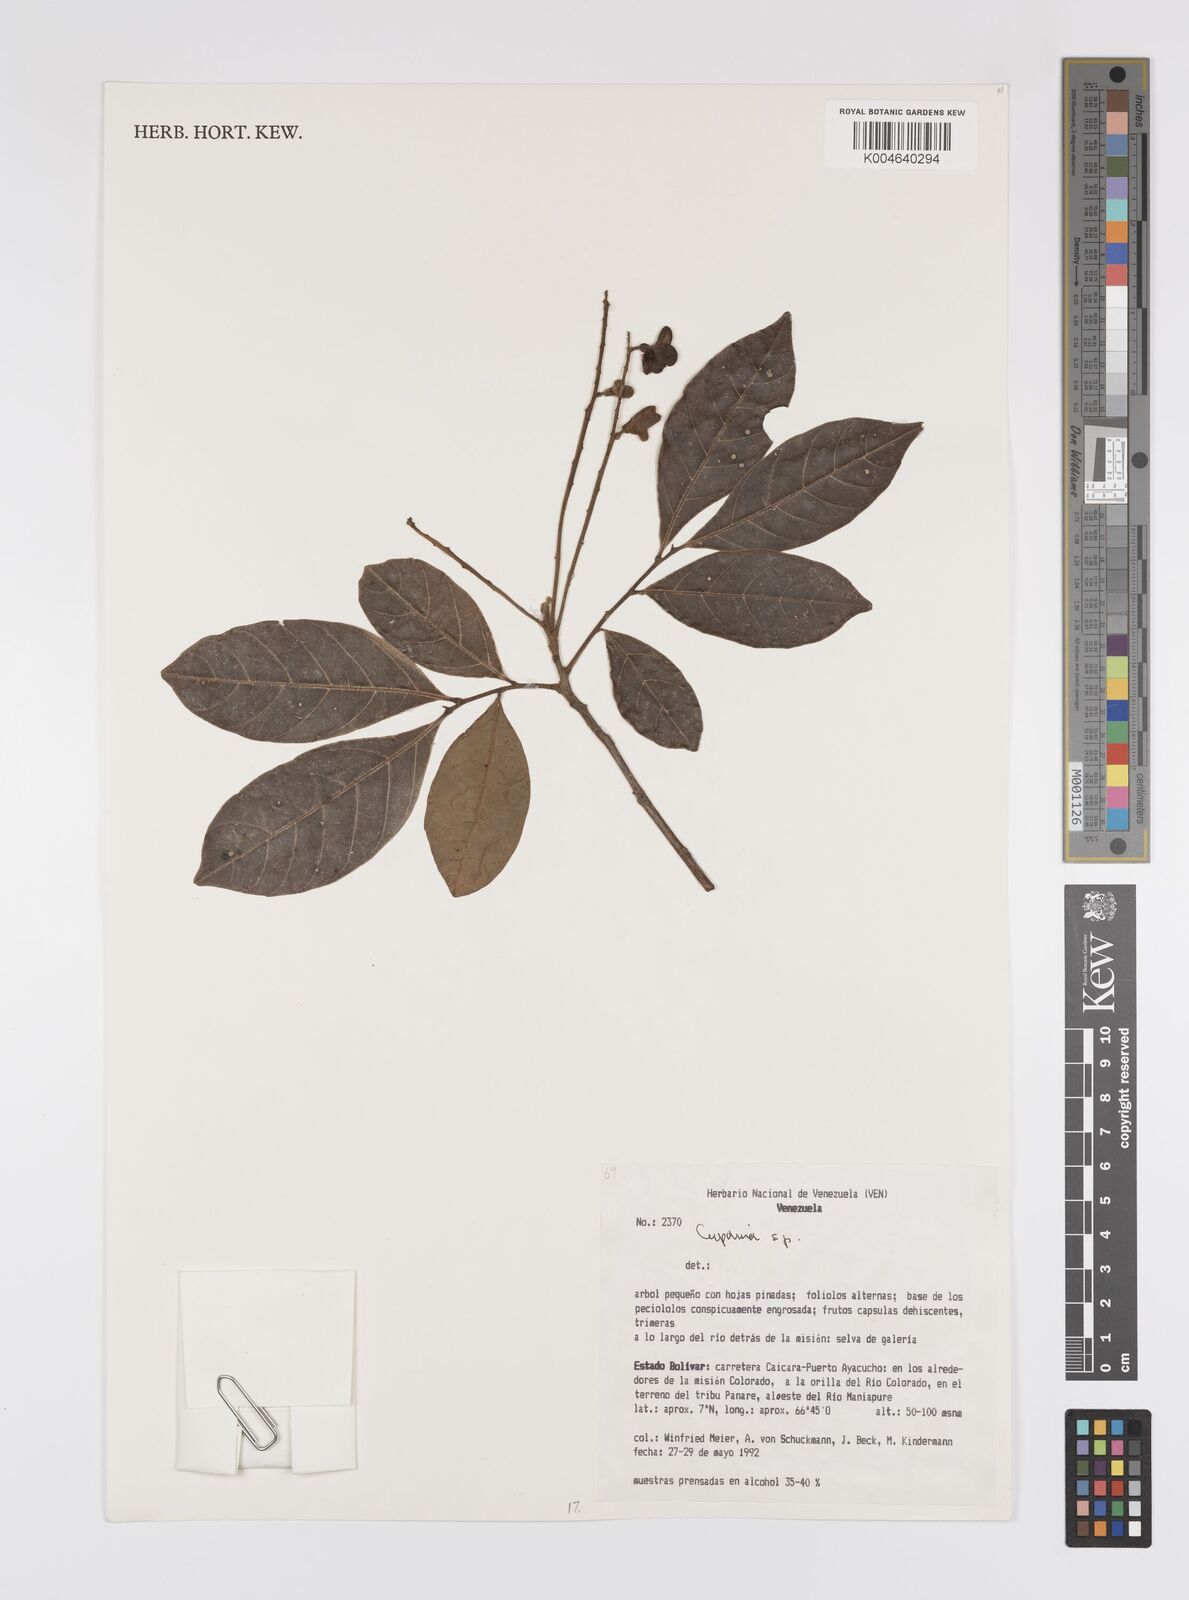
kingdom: Plantae
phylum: Tracheophyta
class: Magnoliopsida
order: Sapindales
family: Sapindaceae
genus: Cupania
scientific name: Cupania
